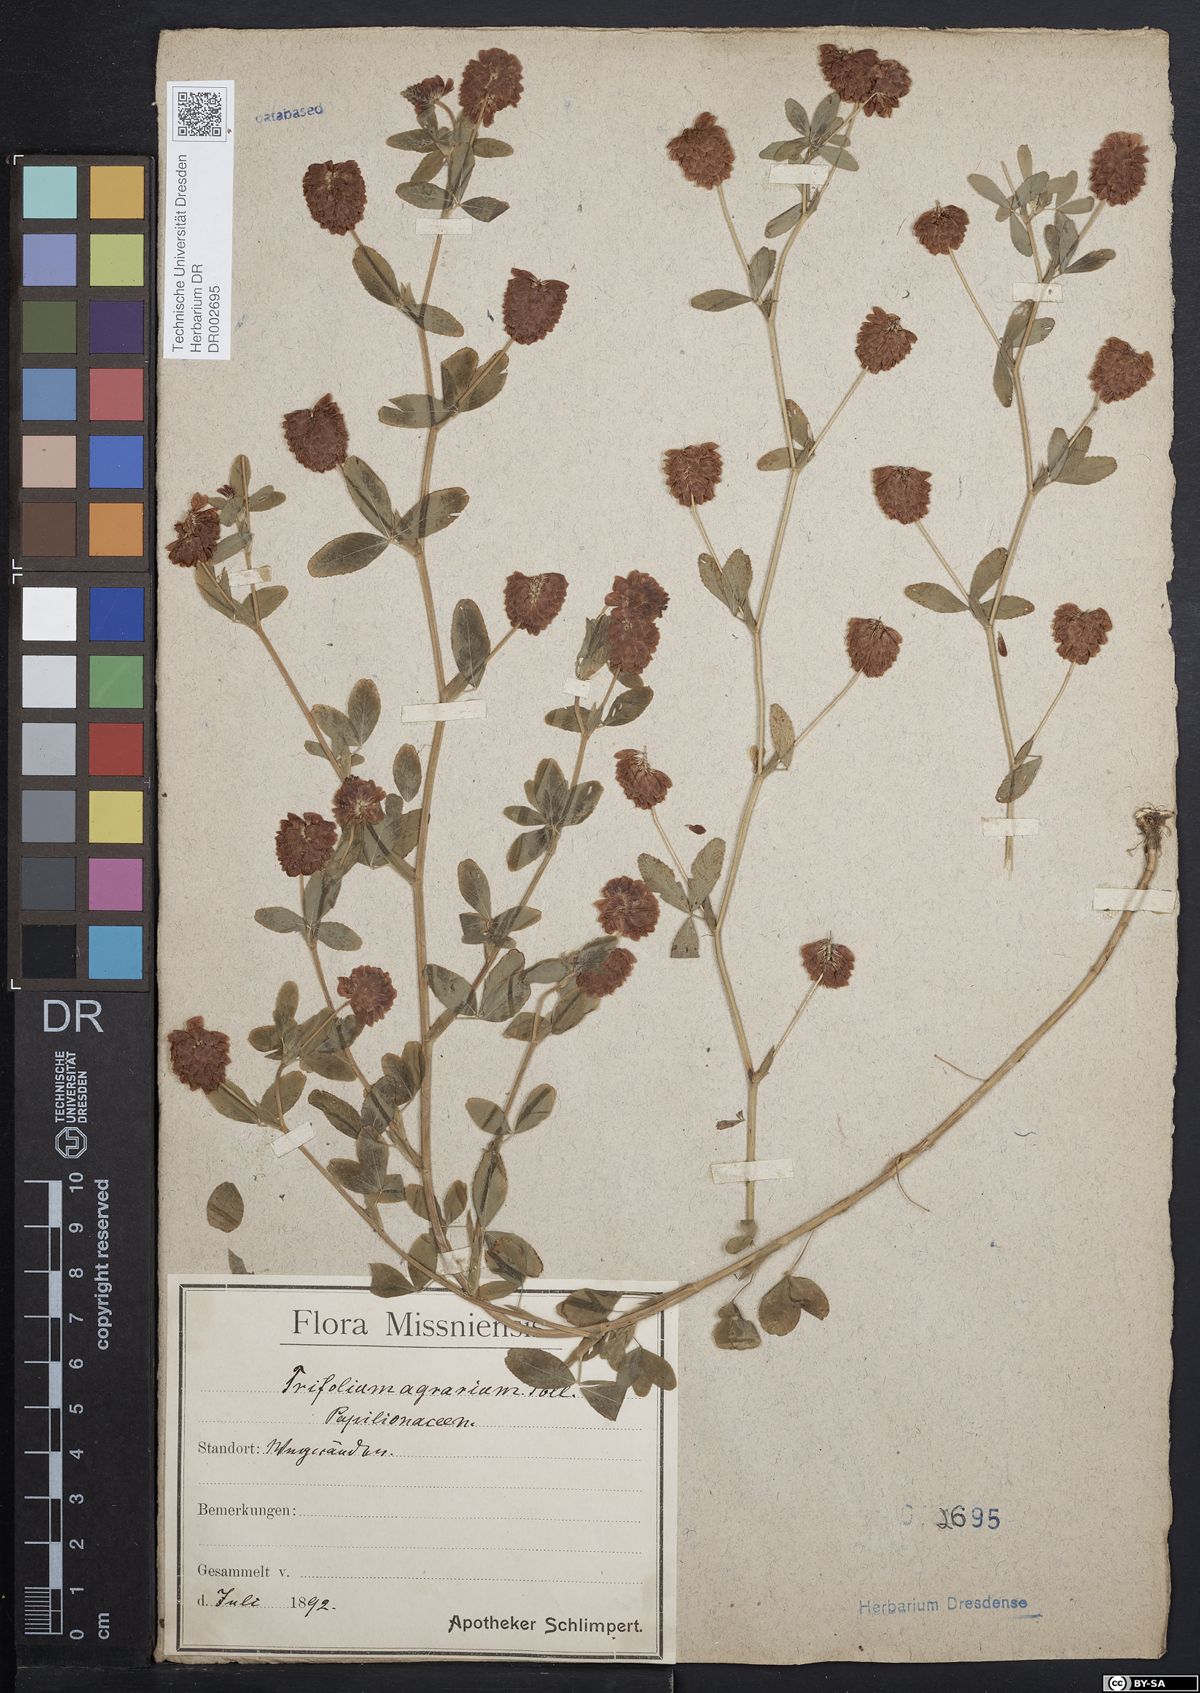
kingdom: Plantae
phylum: Tracheophyta
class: Magnoliopsida
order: Fabales
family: Fabaceae
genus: Trifolium
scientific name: Trifolium aureum
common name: Golden clover
